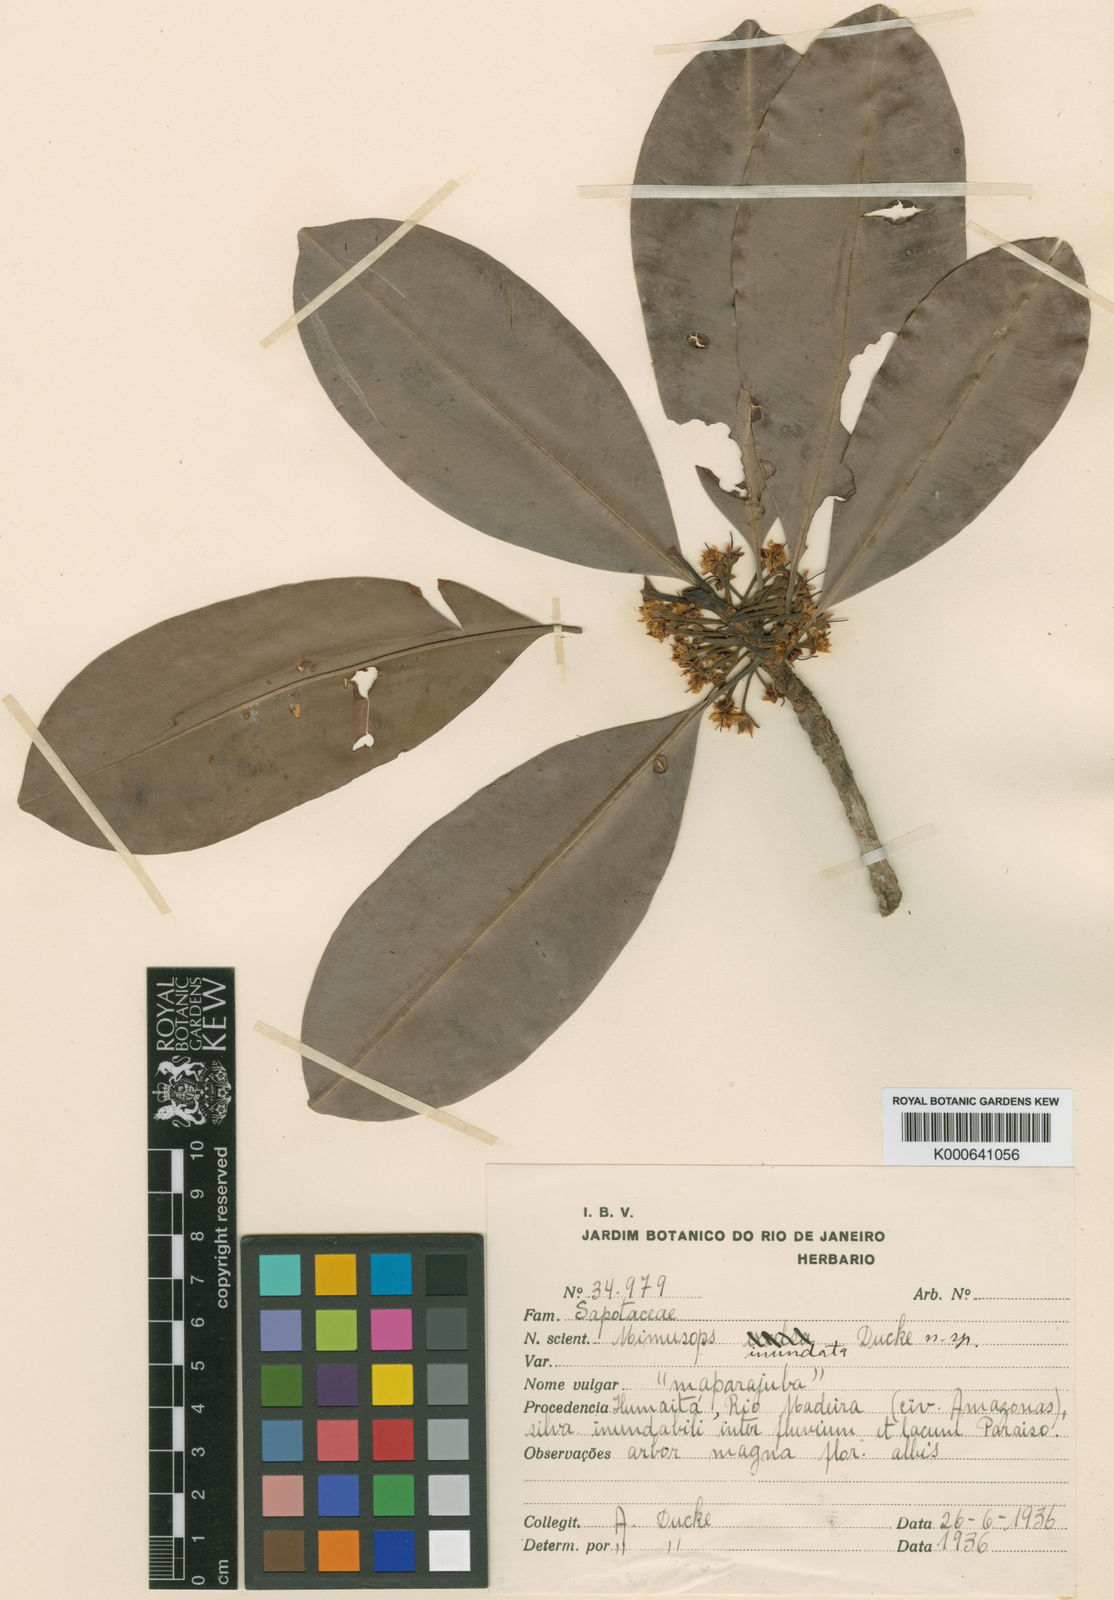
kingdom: Plantae
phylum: Tracheophyta
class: Magnoliopsida
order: Ericales
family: Sapotaceae
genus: Manilkara
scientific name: Manilkara inundata
